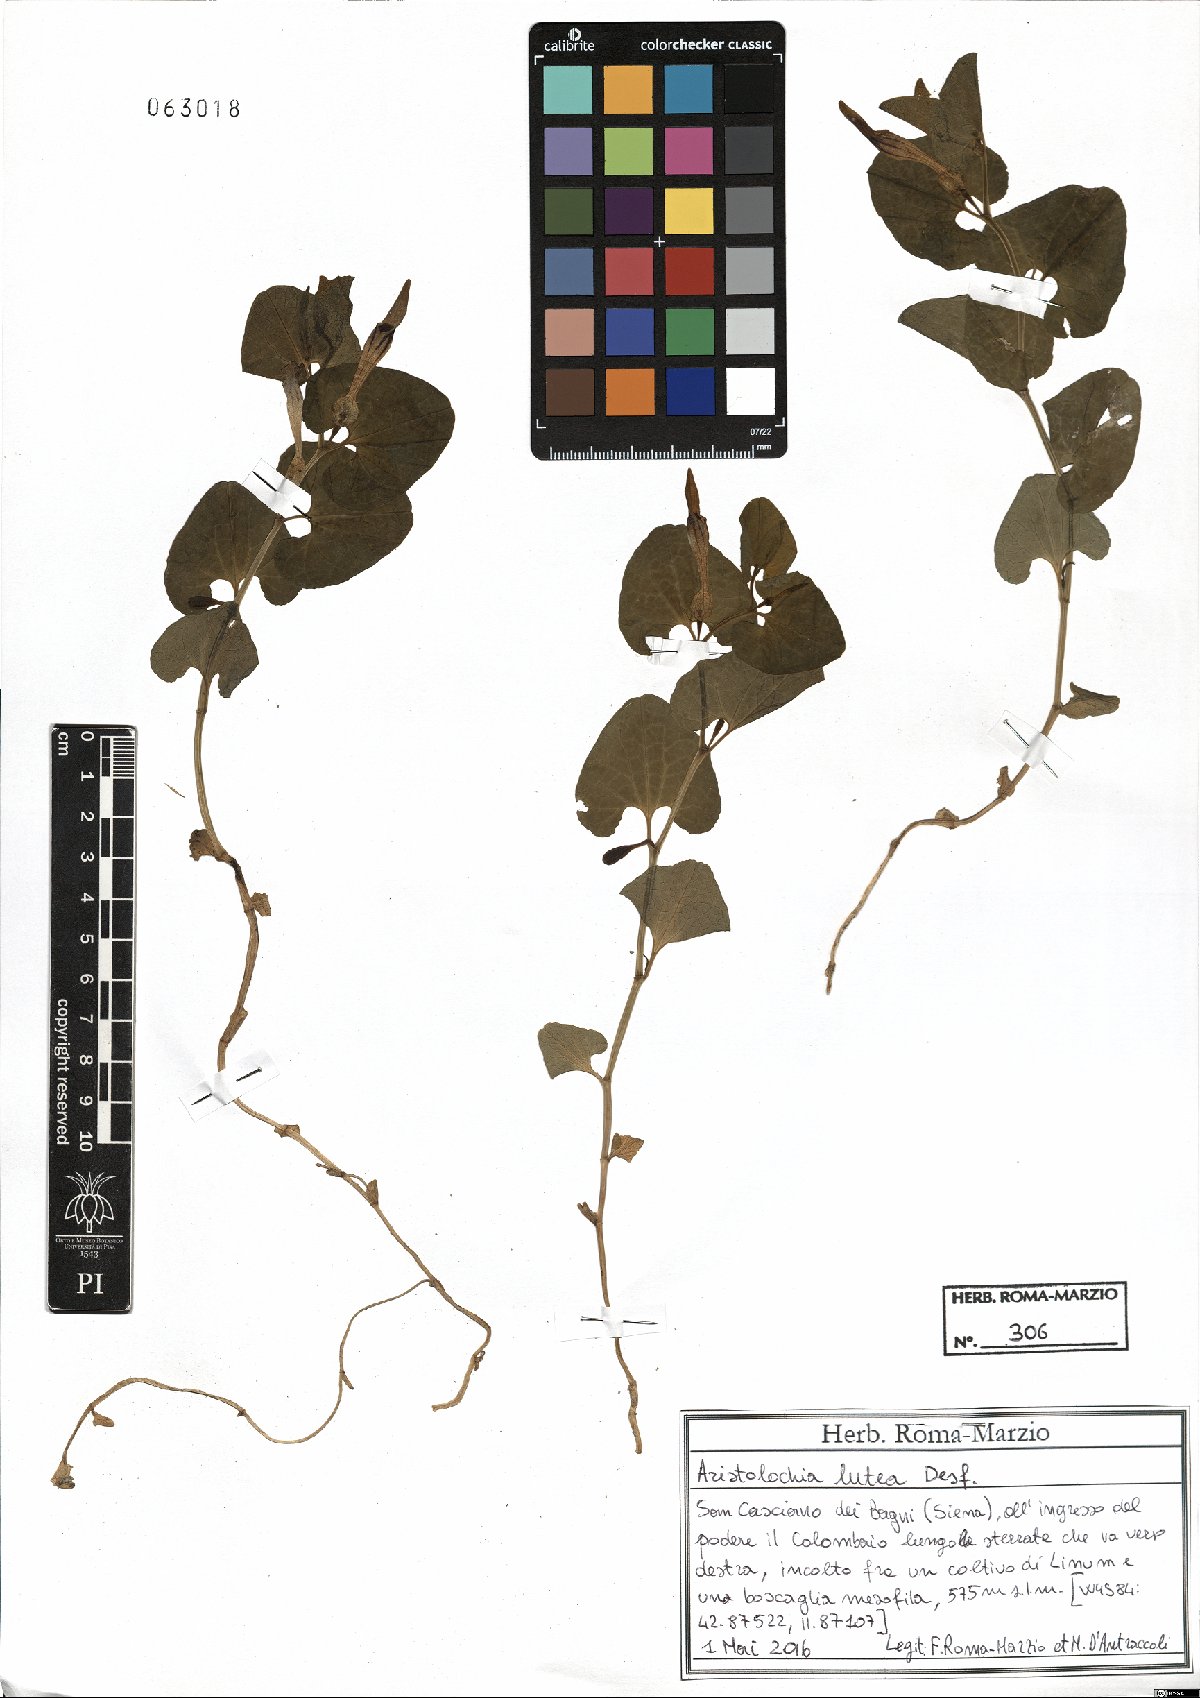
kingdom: Plantae
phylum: Tracheophyta
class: Magnoliopsida
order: Piperales
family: Aristolochiaceae
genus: Aristolochia
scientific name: Aristolochia lutea
